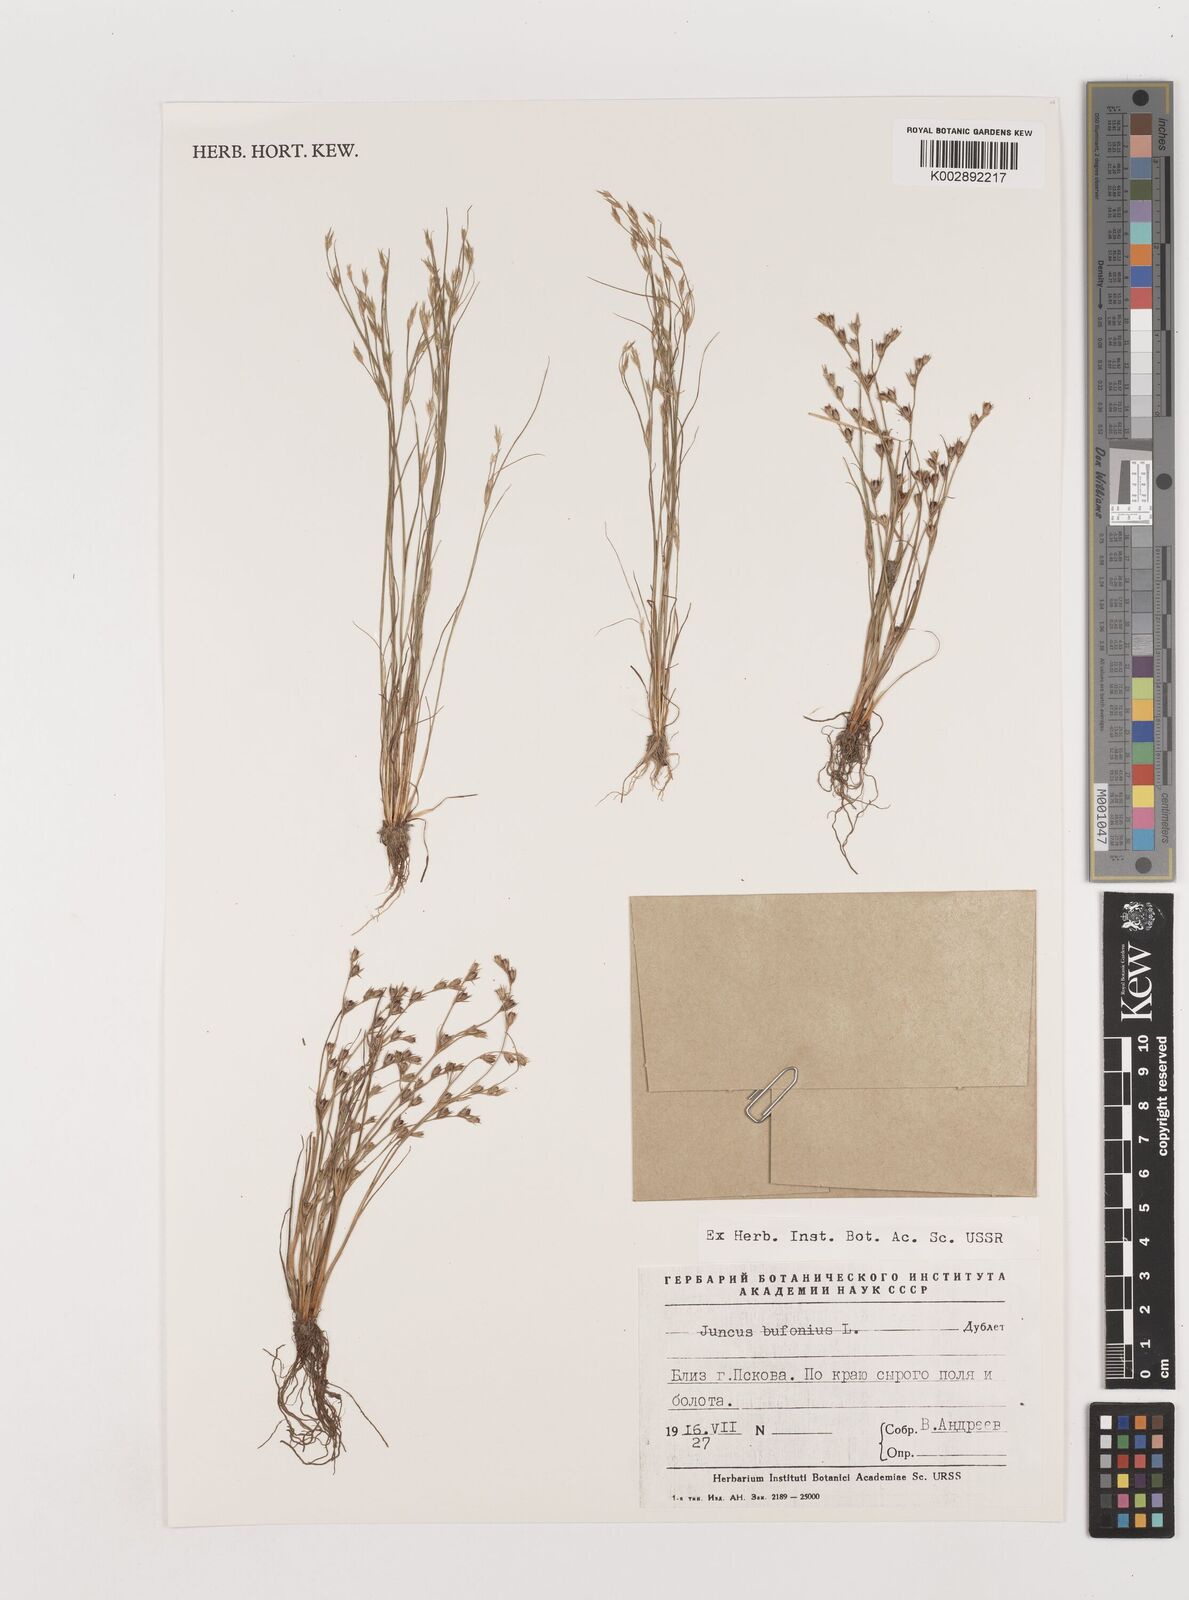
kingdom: Plantae
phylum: Tracheophyta
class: Liliopsida
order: Poales
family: Juncaceae
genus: Juncus
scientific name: Juncus bufonius
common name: Toad rush
